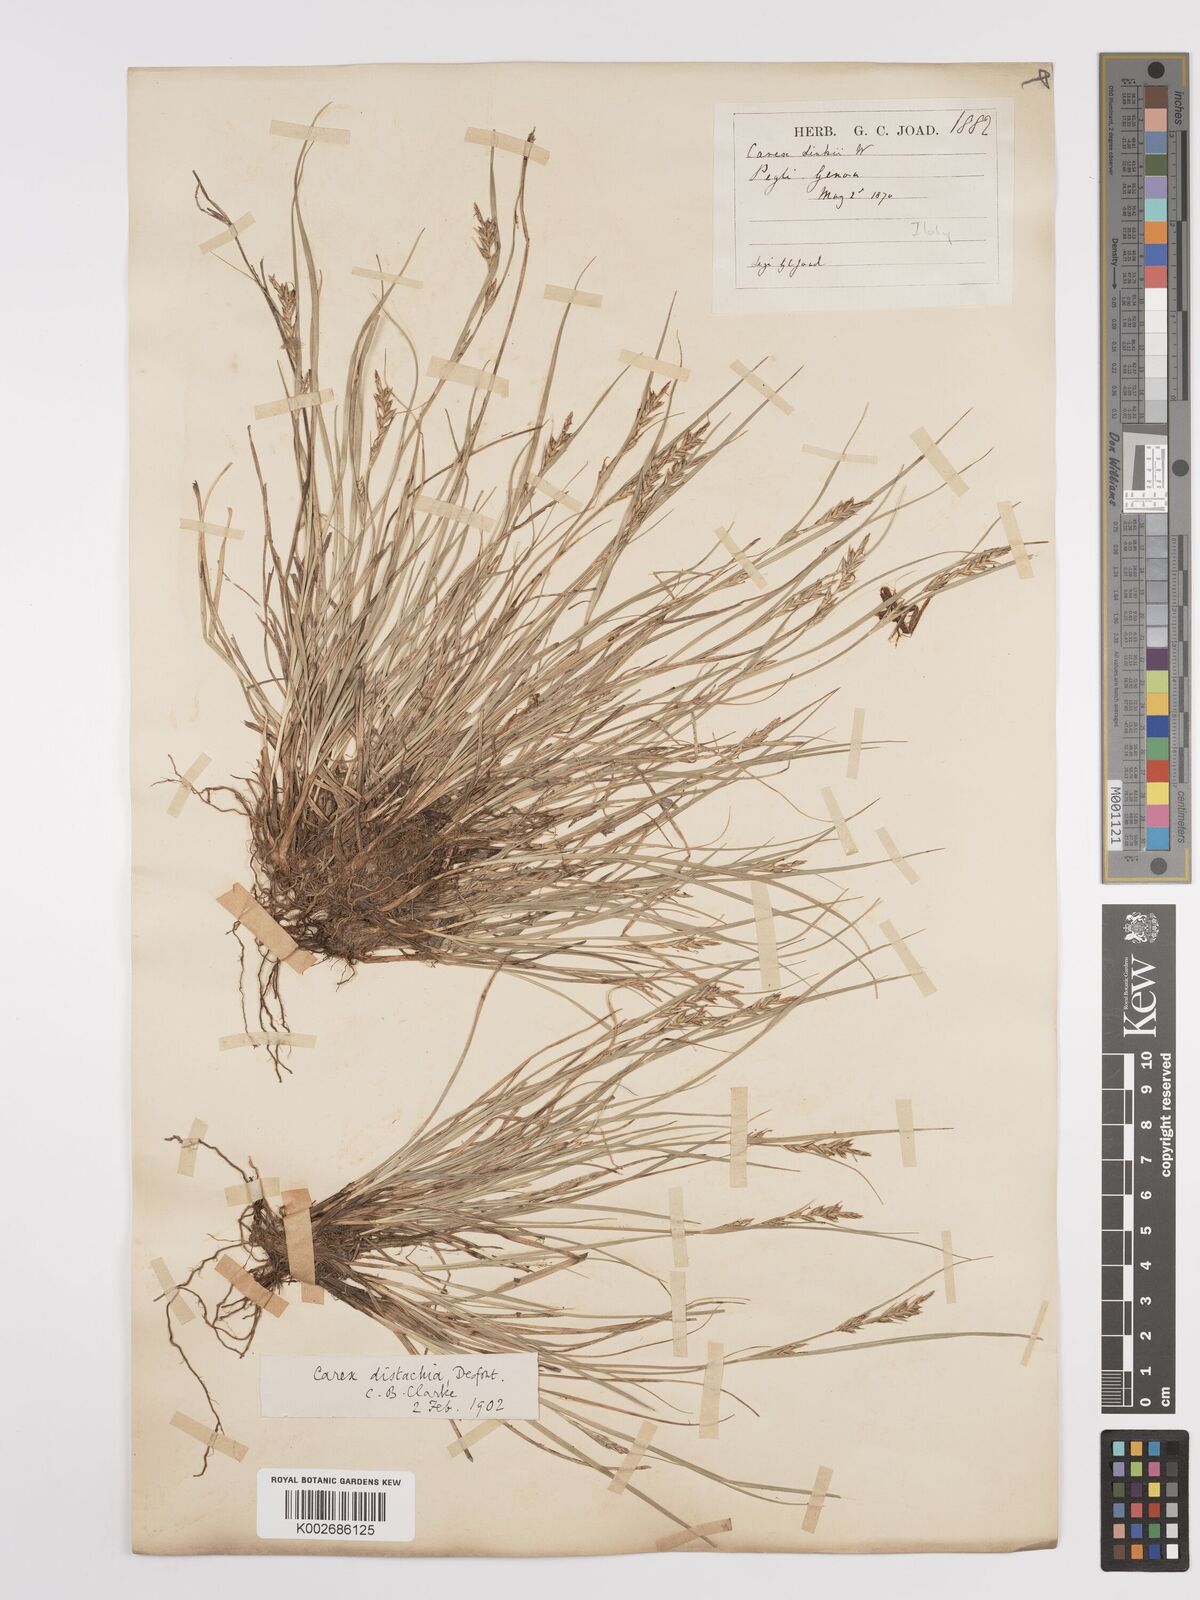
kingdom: Plantae
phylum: Tracheophyta
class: Liliopsida
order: Poales
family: Cyperaceae
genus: Carex
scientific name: Carex distachya
